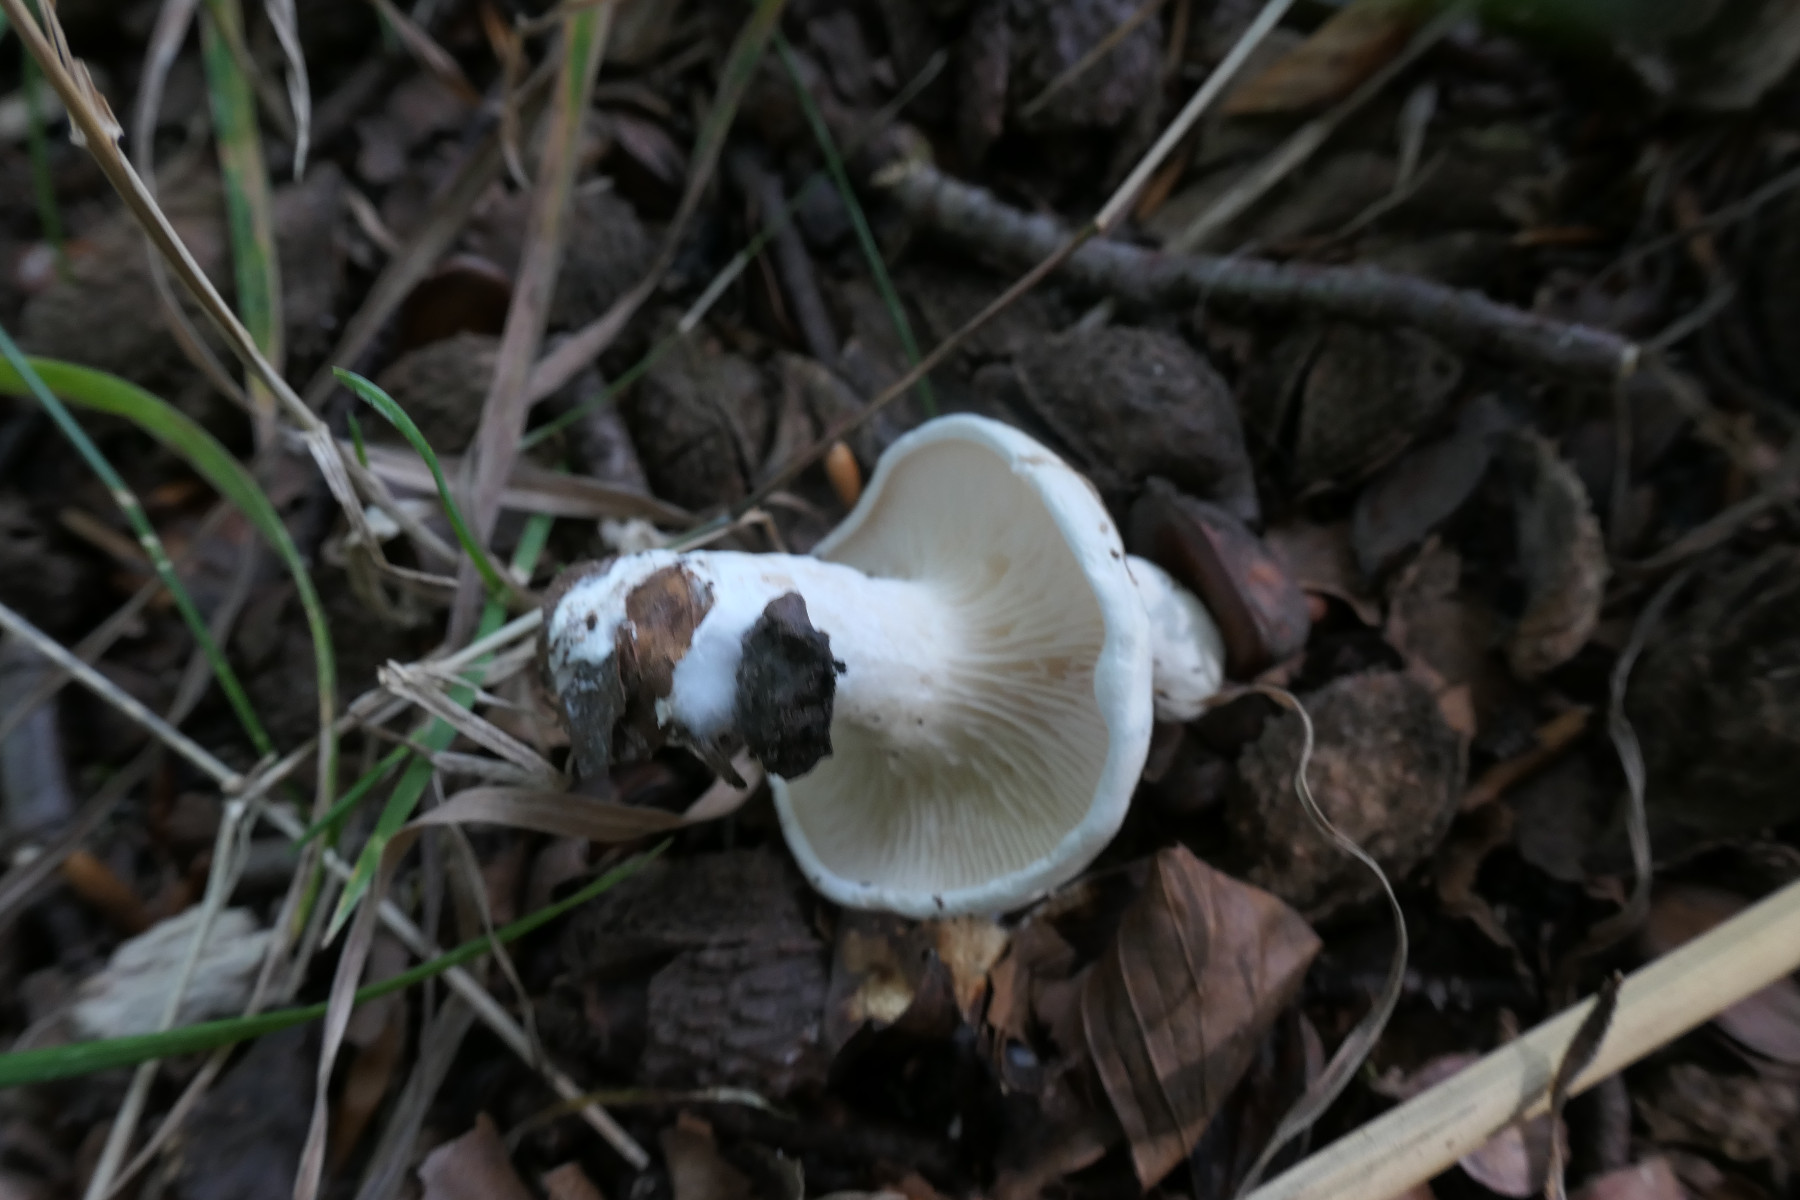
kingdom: Fungi
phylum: Basidiomycota
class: Agaricomycetes
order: Agaricales
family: Entolomataceae
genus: Clitopilus
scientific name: Clitopilus prunulus
